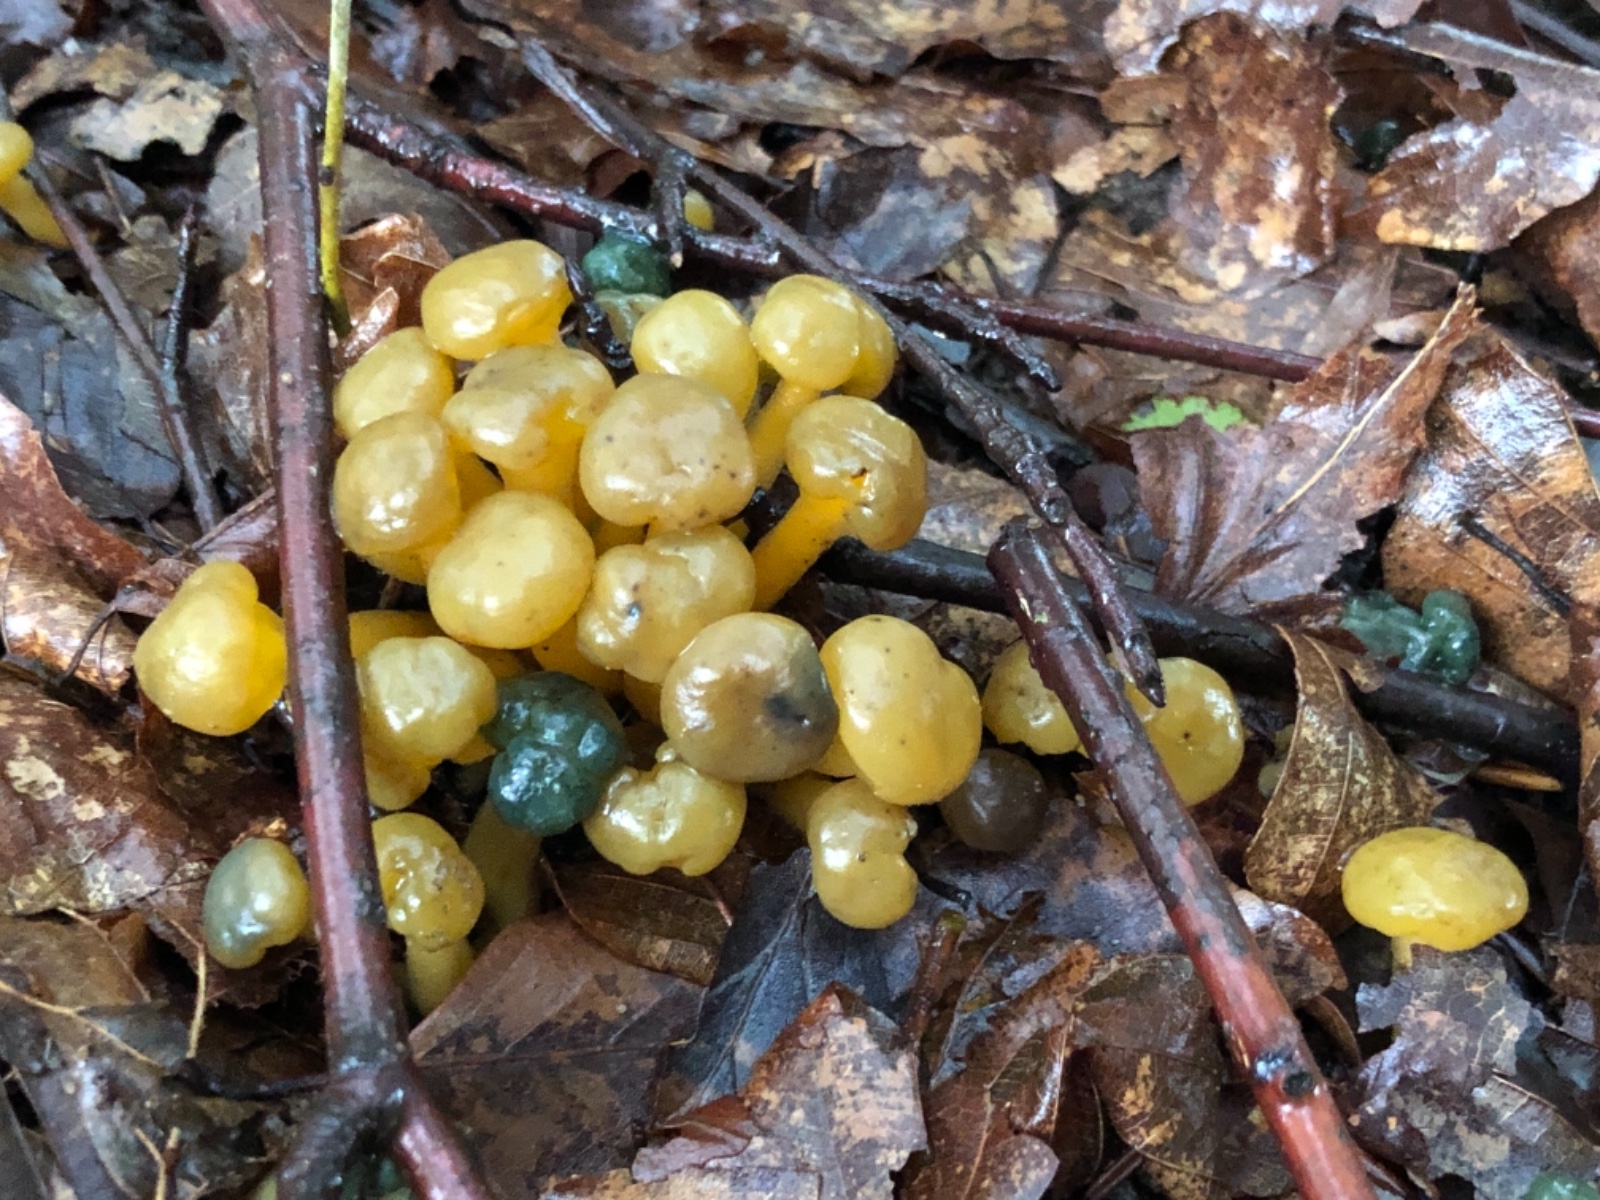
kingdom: Fungi
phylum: Ascomycota
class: Leotiomycetes
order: Leotiales
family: Leotiaceae
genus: Leotia
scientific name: Leotia lubrica
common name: ravsvamp
